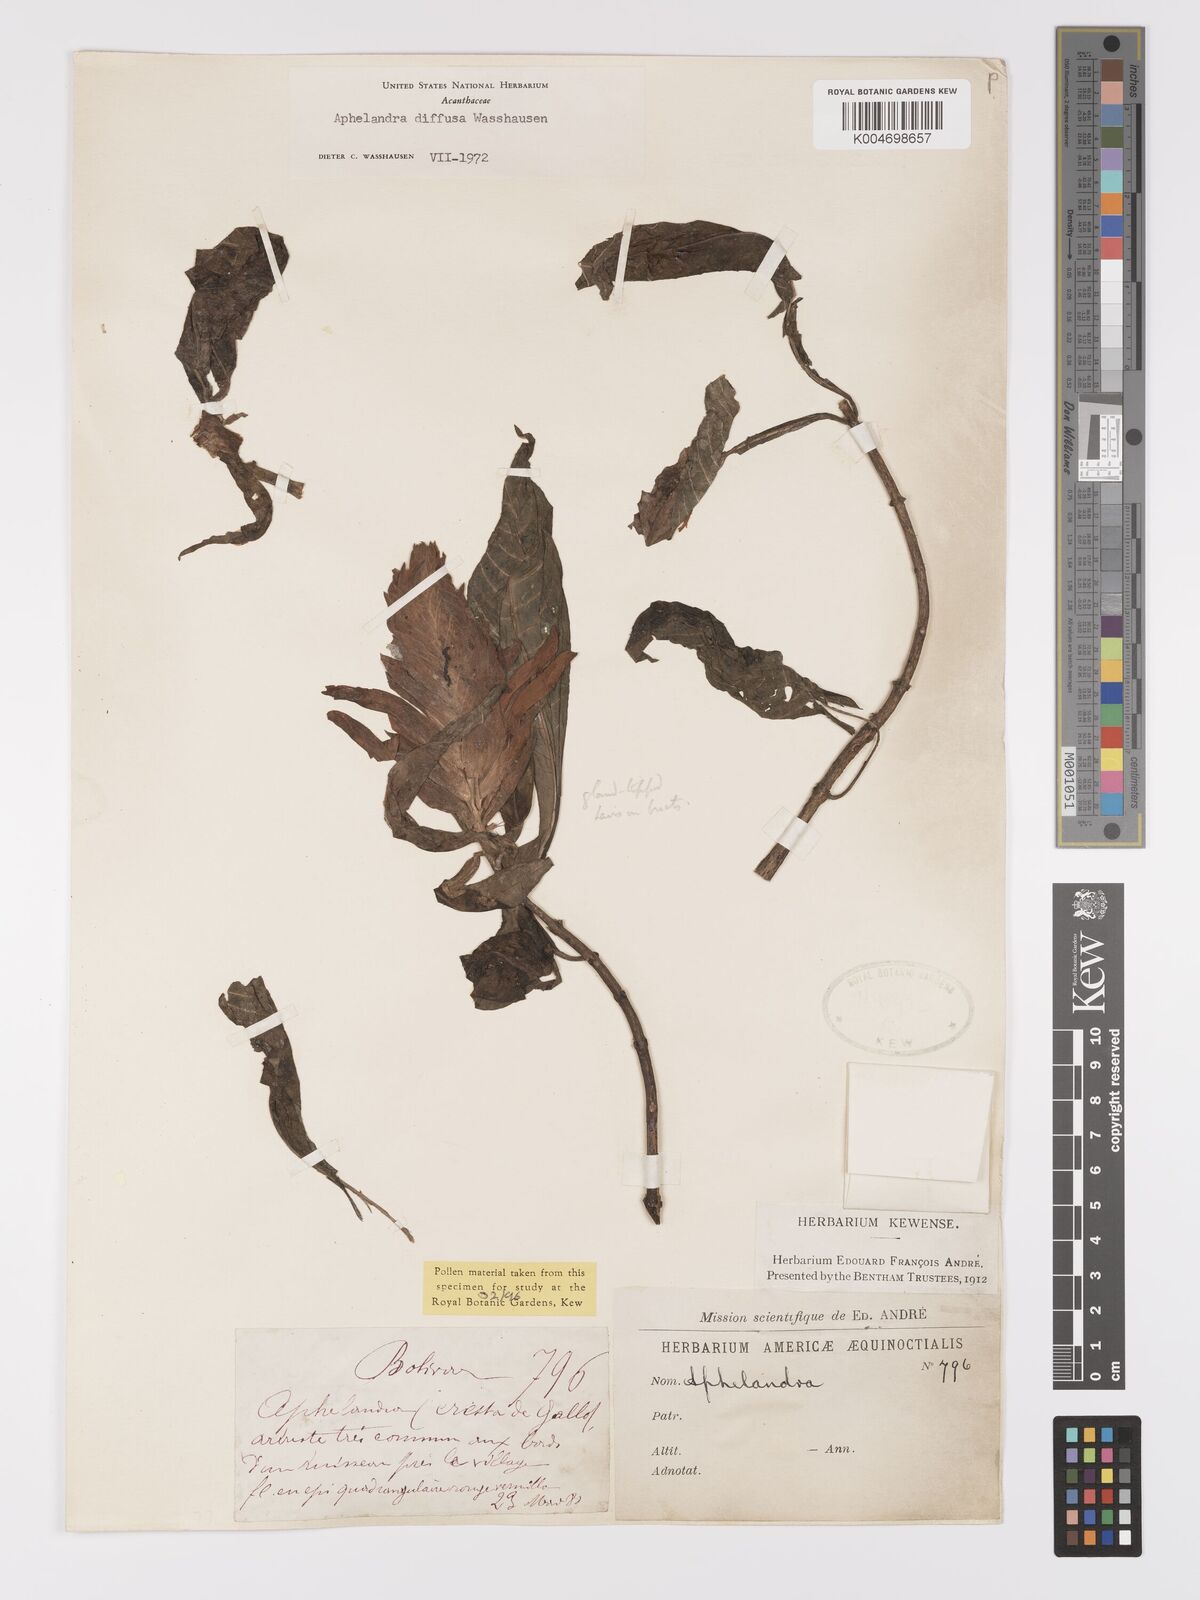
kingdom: Plantae
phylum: Tracheophyta
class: Magnoliopsida
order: Lamiales
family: Acanthaceae
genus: Aphelandra
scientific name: Aphelandra diffusa
